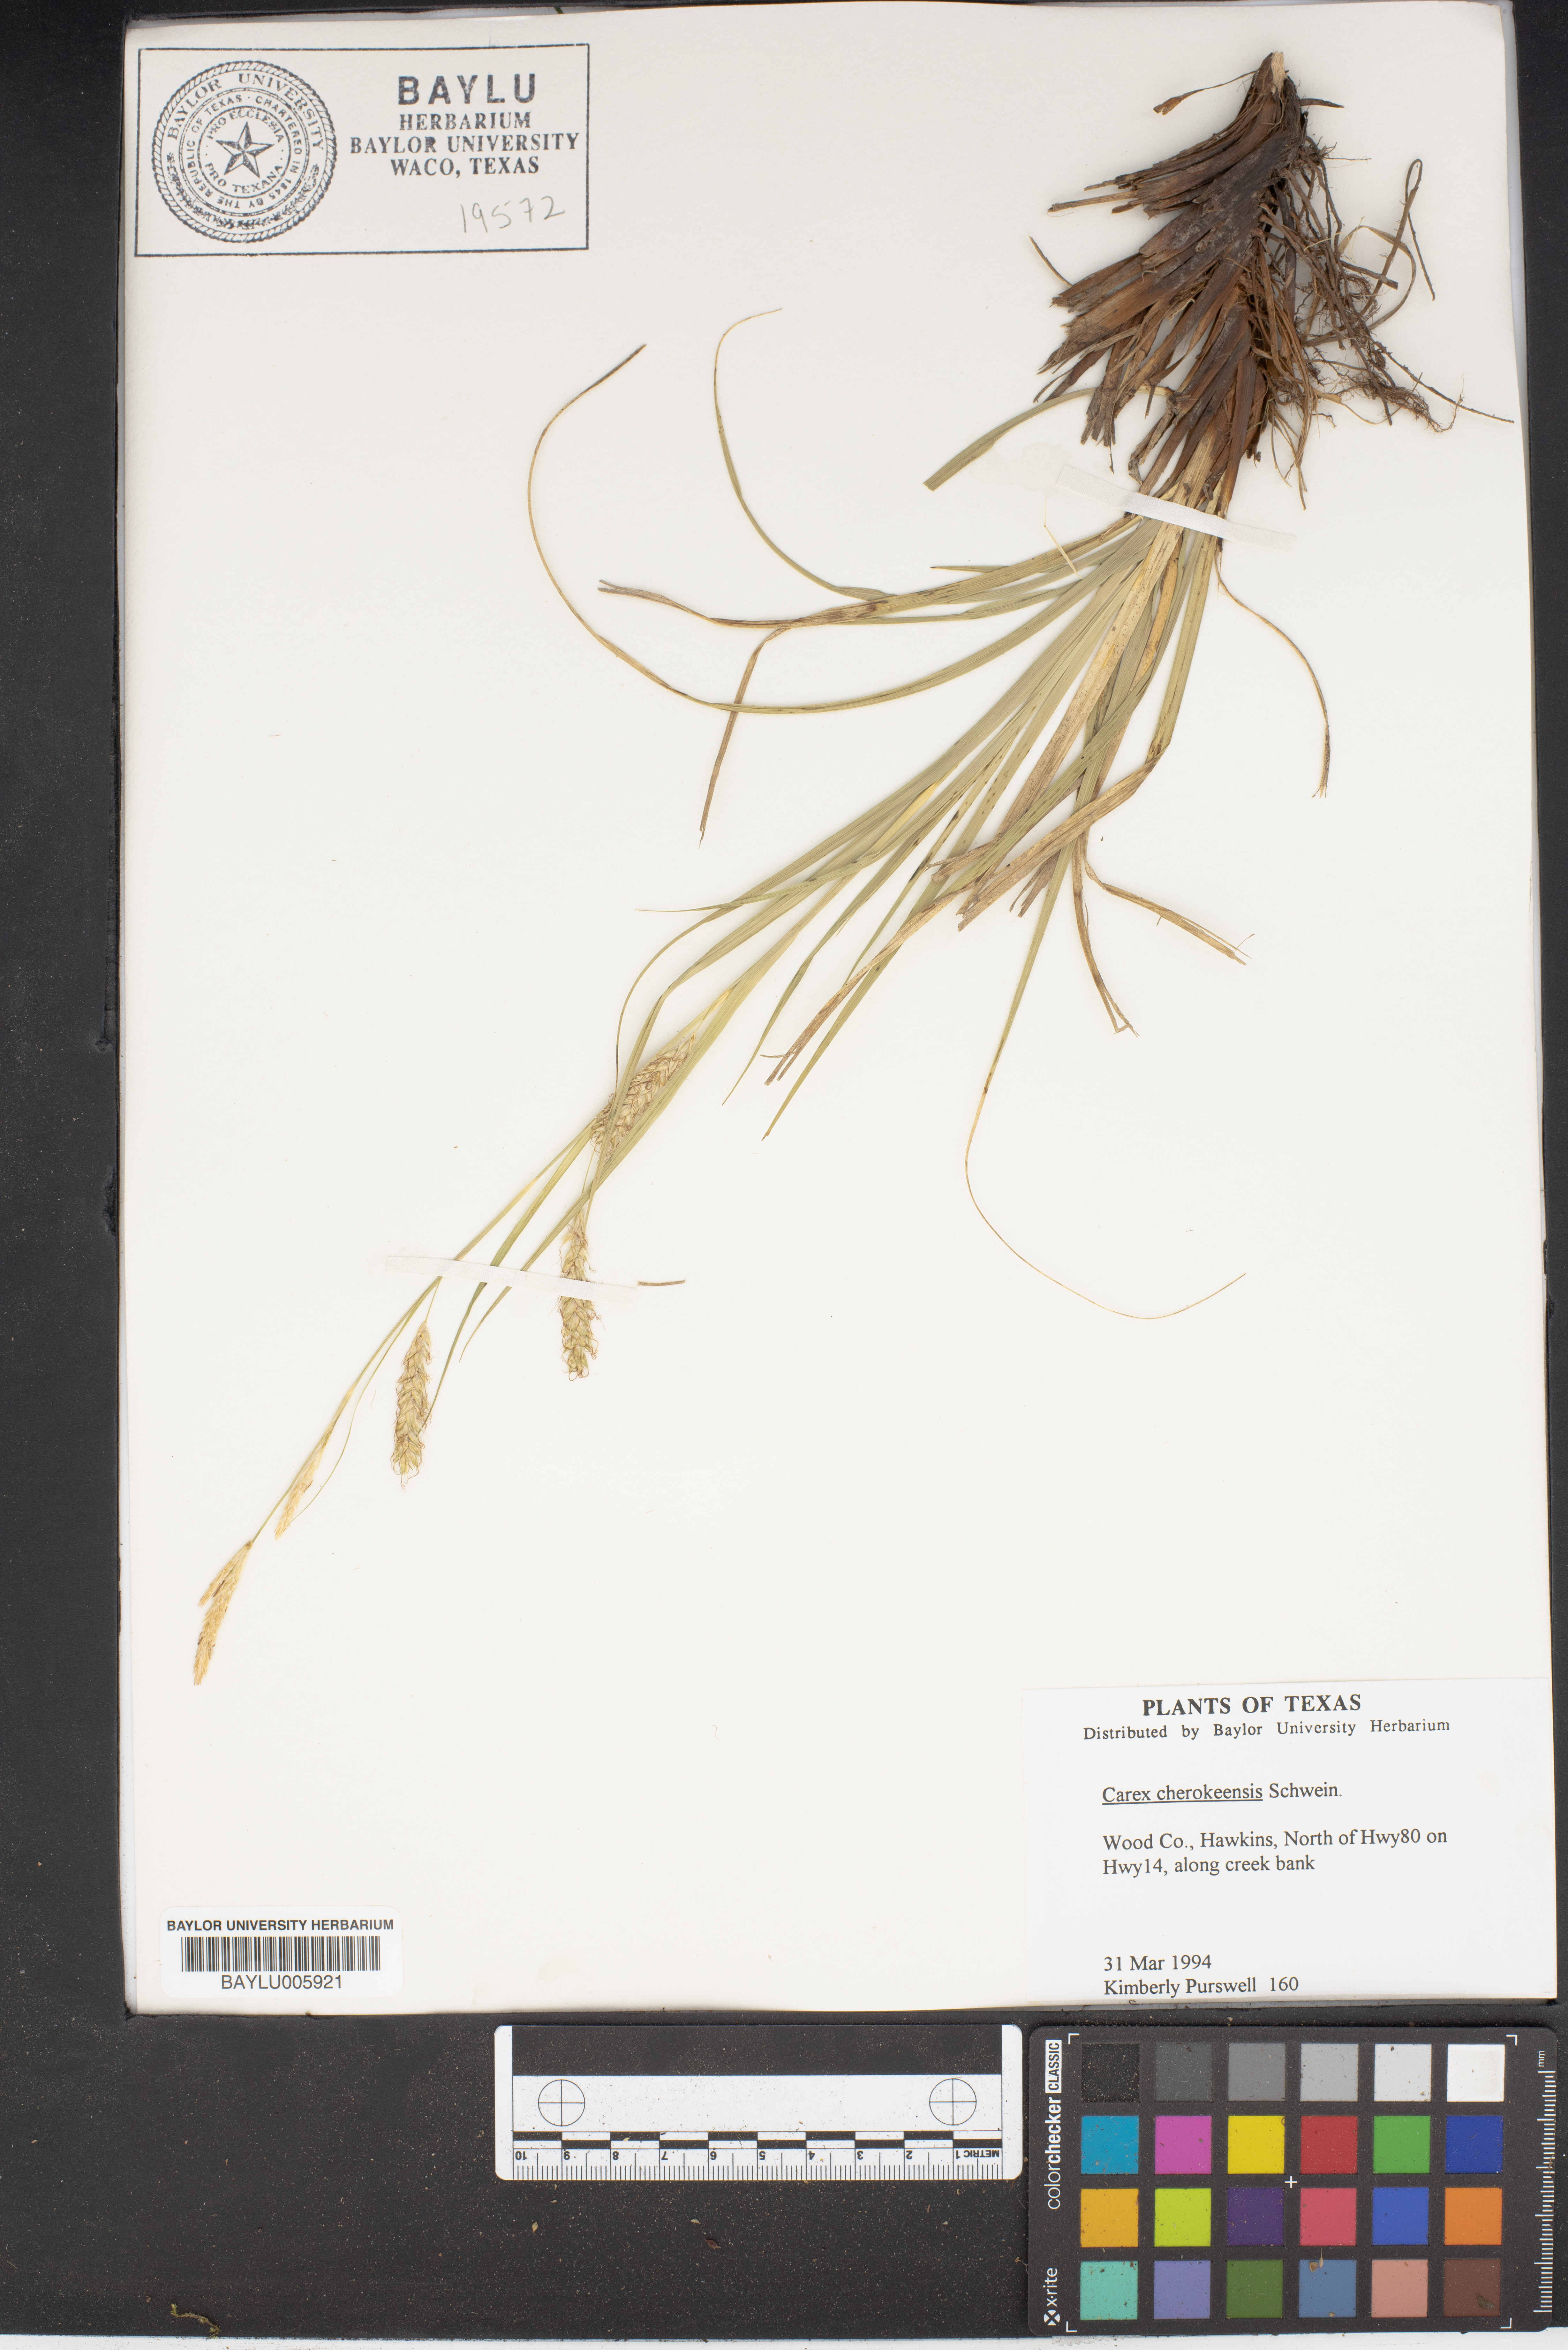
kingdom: Plantae
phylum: Tracheophyta
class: Liliopsida
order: Poales
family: Cyperaceae
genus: Carex
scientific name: Carex cherokeensis
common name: Cherokee sedge
